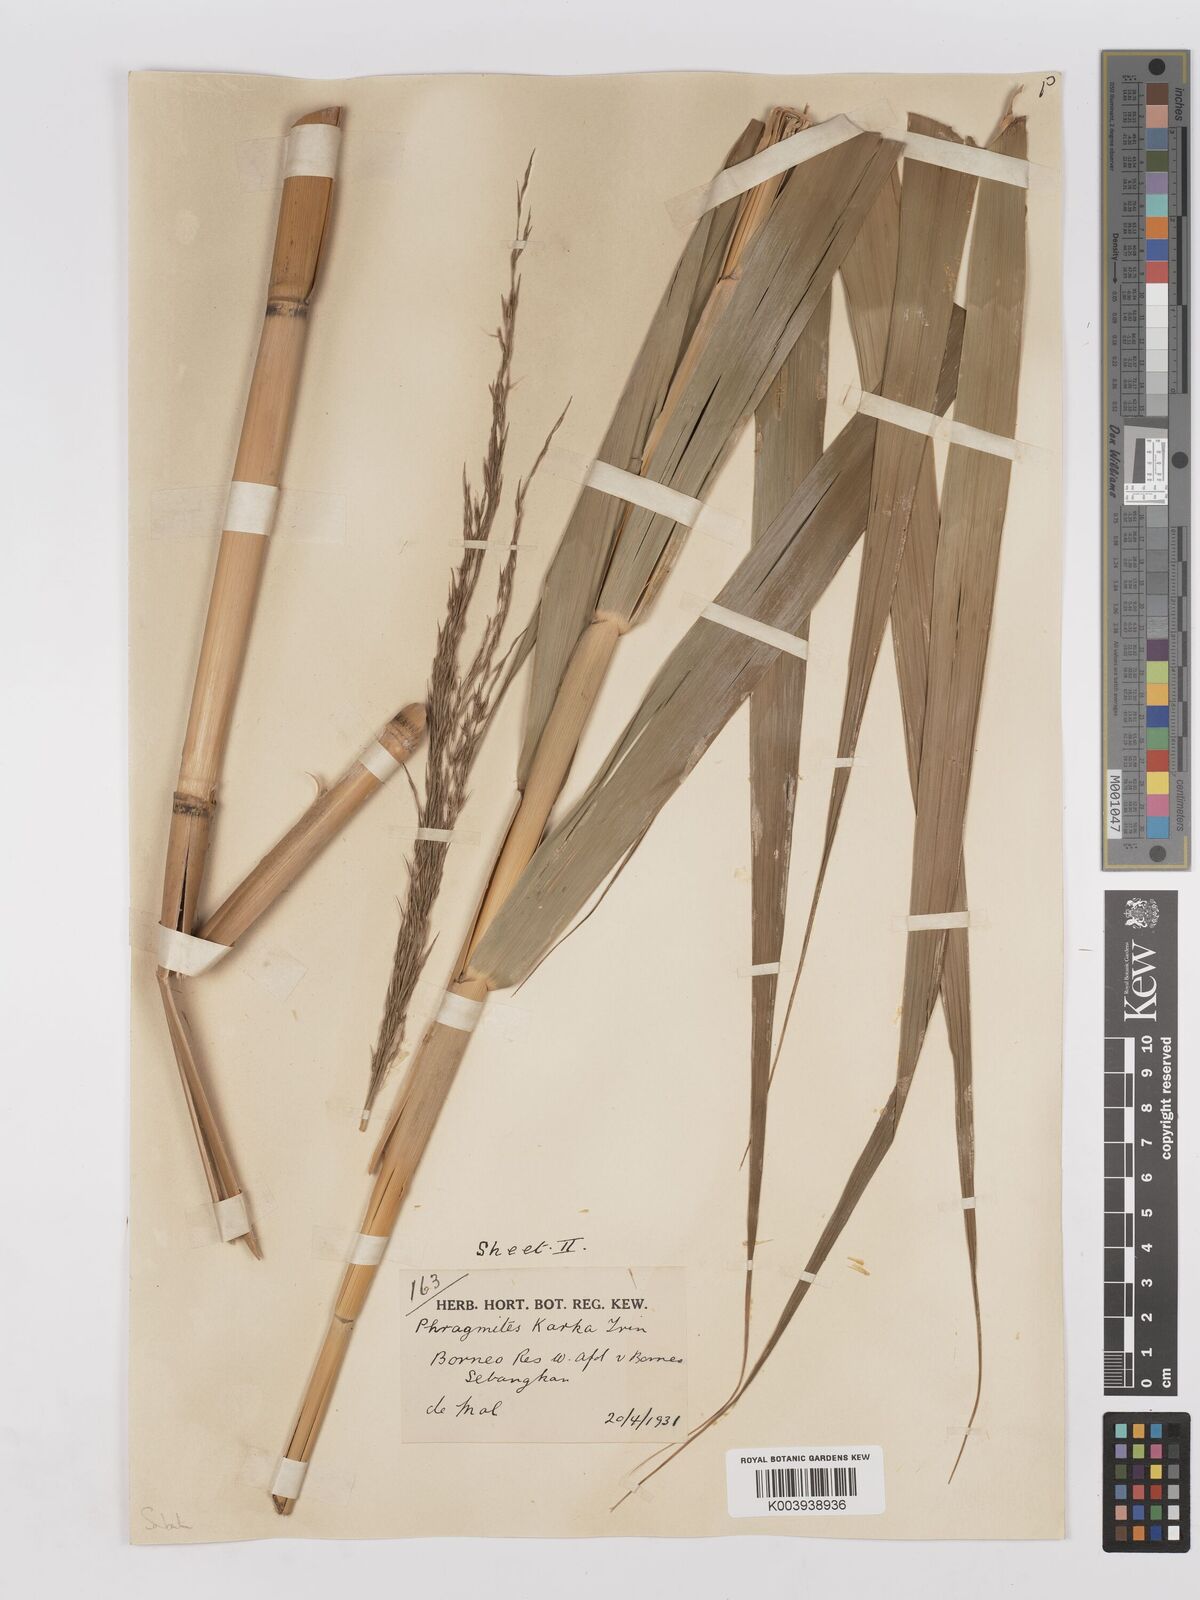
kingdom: Plantae
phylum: Tracheophyta
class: Liliopsida
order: Poales
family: Poaceae
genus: Phragmites
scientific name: Phragmites karka
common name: Tropical reed
